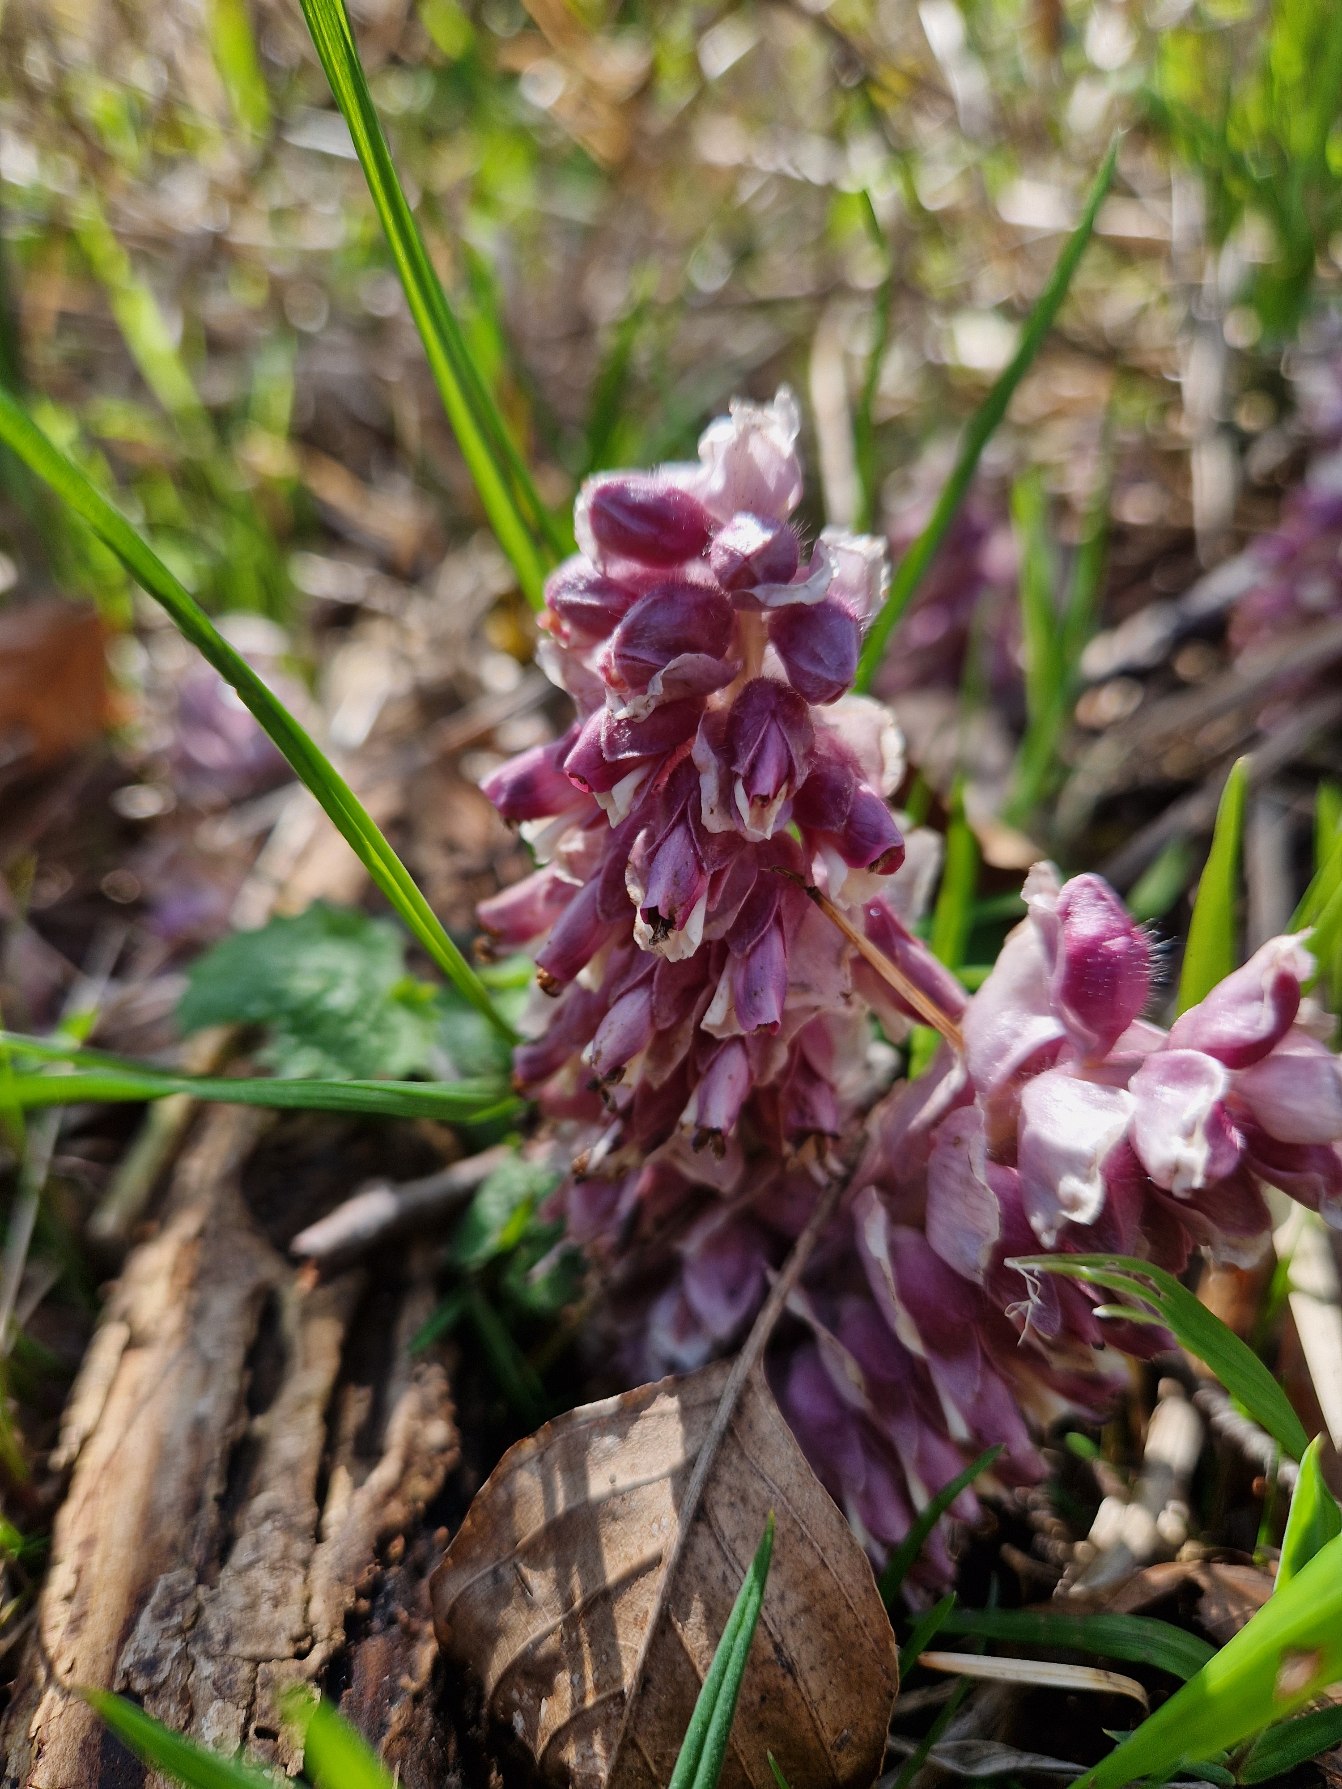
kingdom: Plantae
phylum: Tracheophyta
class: Magnoliopsida
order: Lamiales
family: Orobanchaceae
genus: Lathraea
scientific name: Lathraea squamaria
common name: Skælrod
